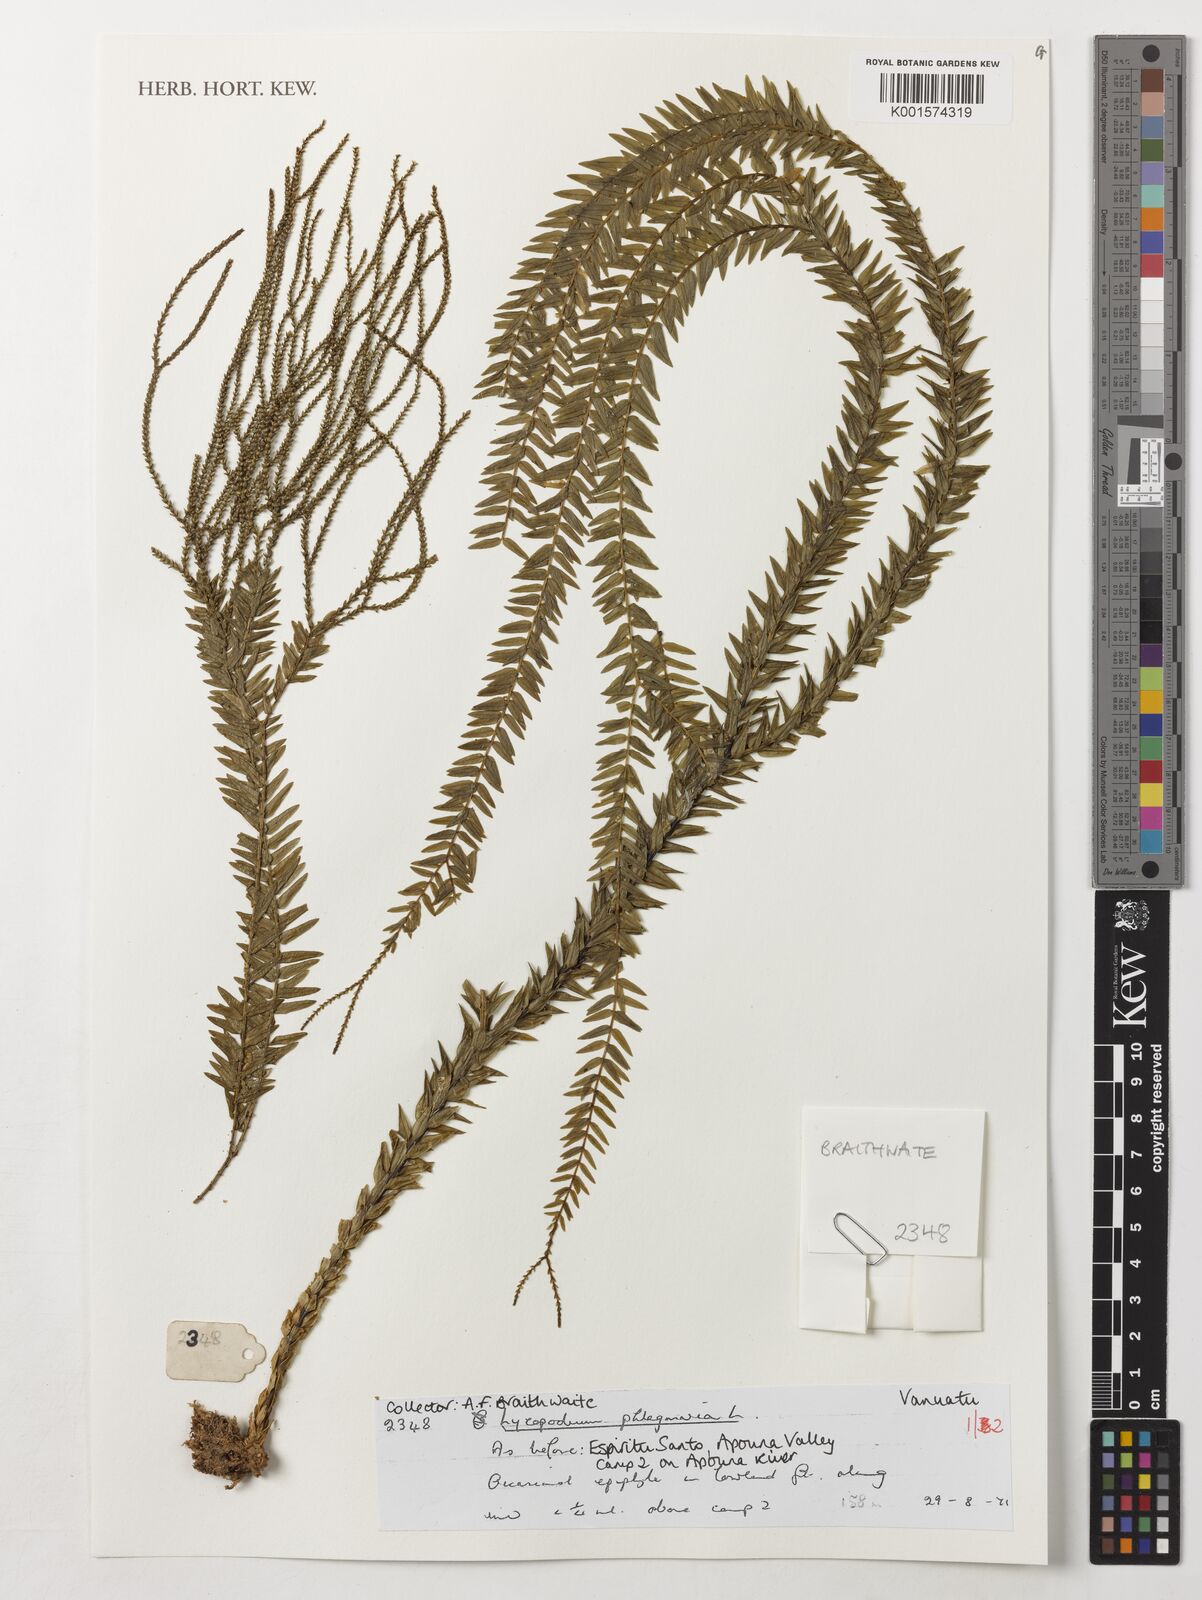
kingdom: Plantae
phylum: Tracheophyta
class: Lycopodiopsida
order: Lycopodiales
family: Lycopodiaceae
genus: Phlegmariurus
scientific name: Phlegmariurus phlegmaria
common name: Coarse tassel-fern
